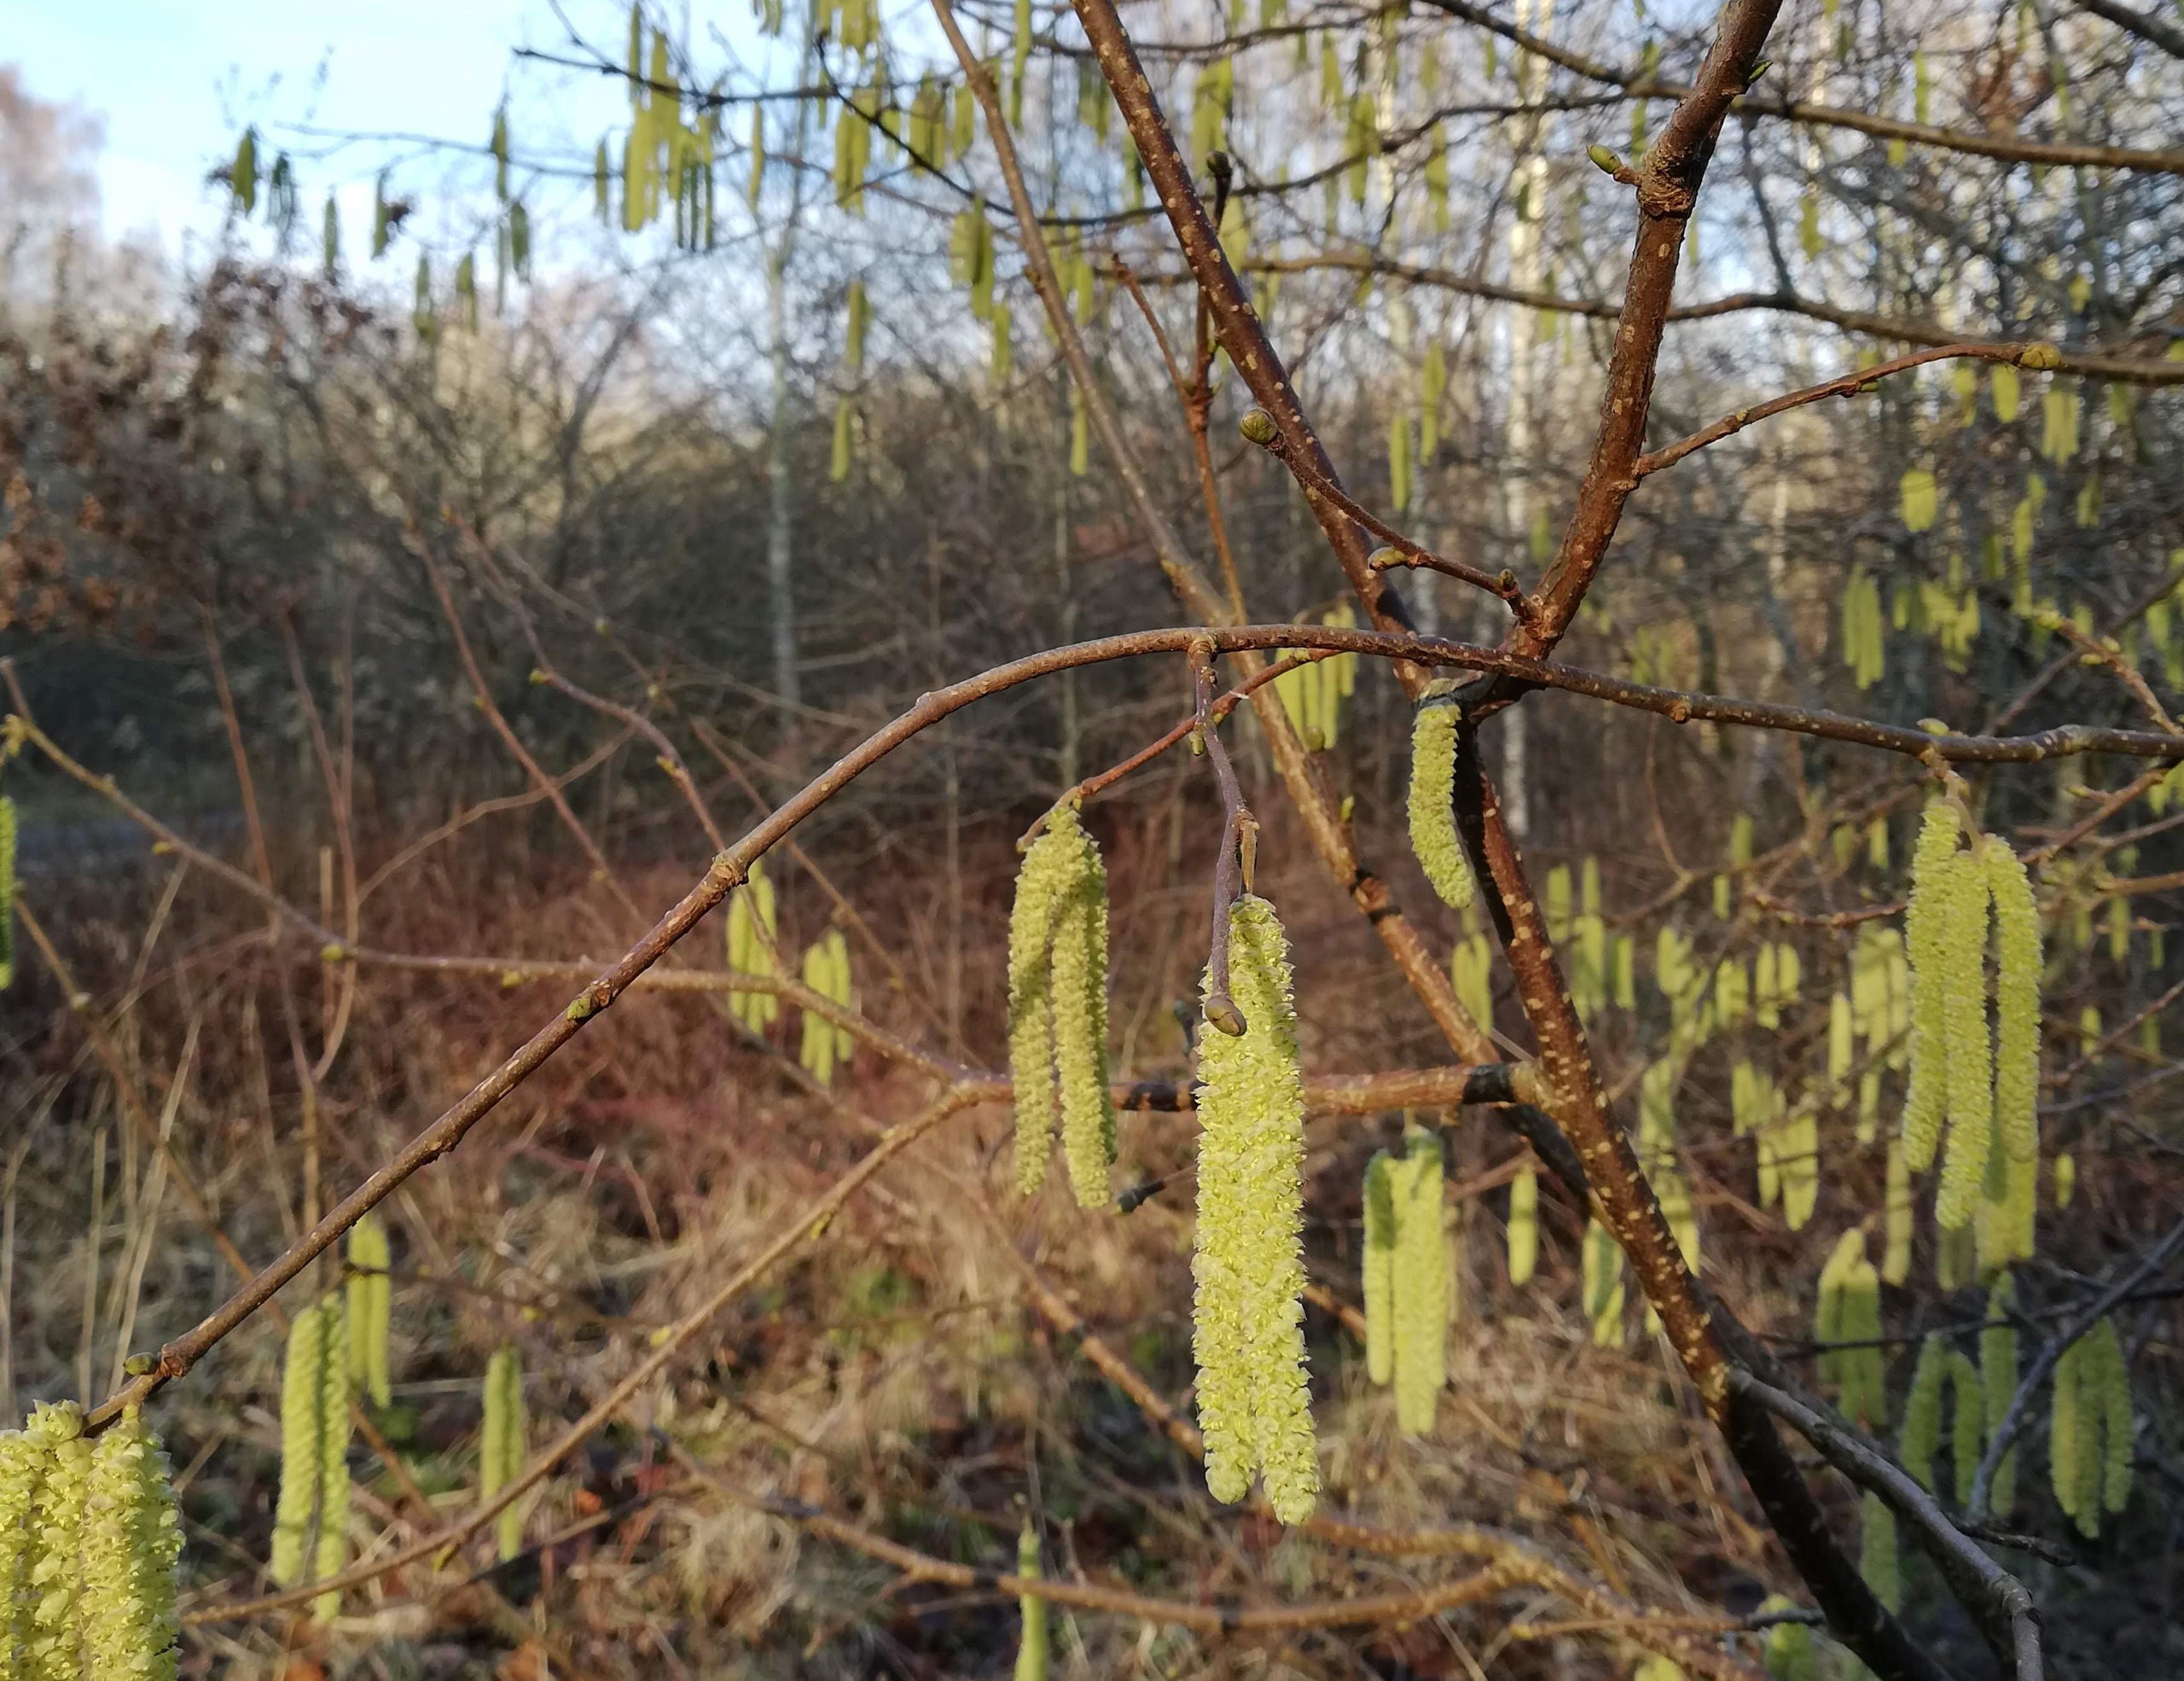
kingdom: Plantae
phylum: Tracheophyta
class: Magnoliopsida
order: Fagales
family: Betulaceae
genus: Corylus
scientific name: Corylus avellana
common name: Hassel
